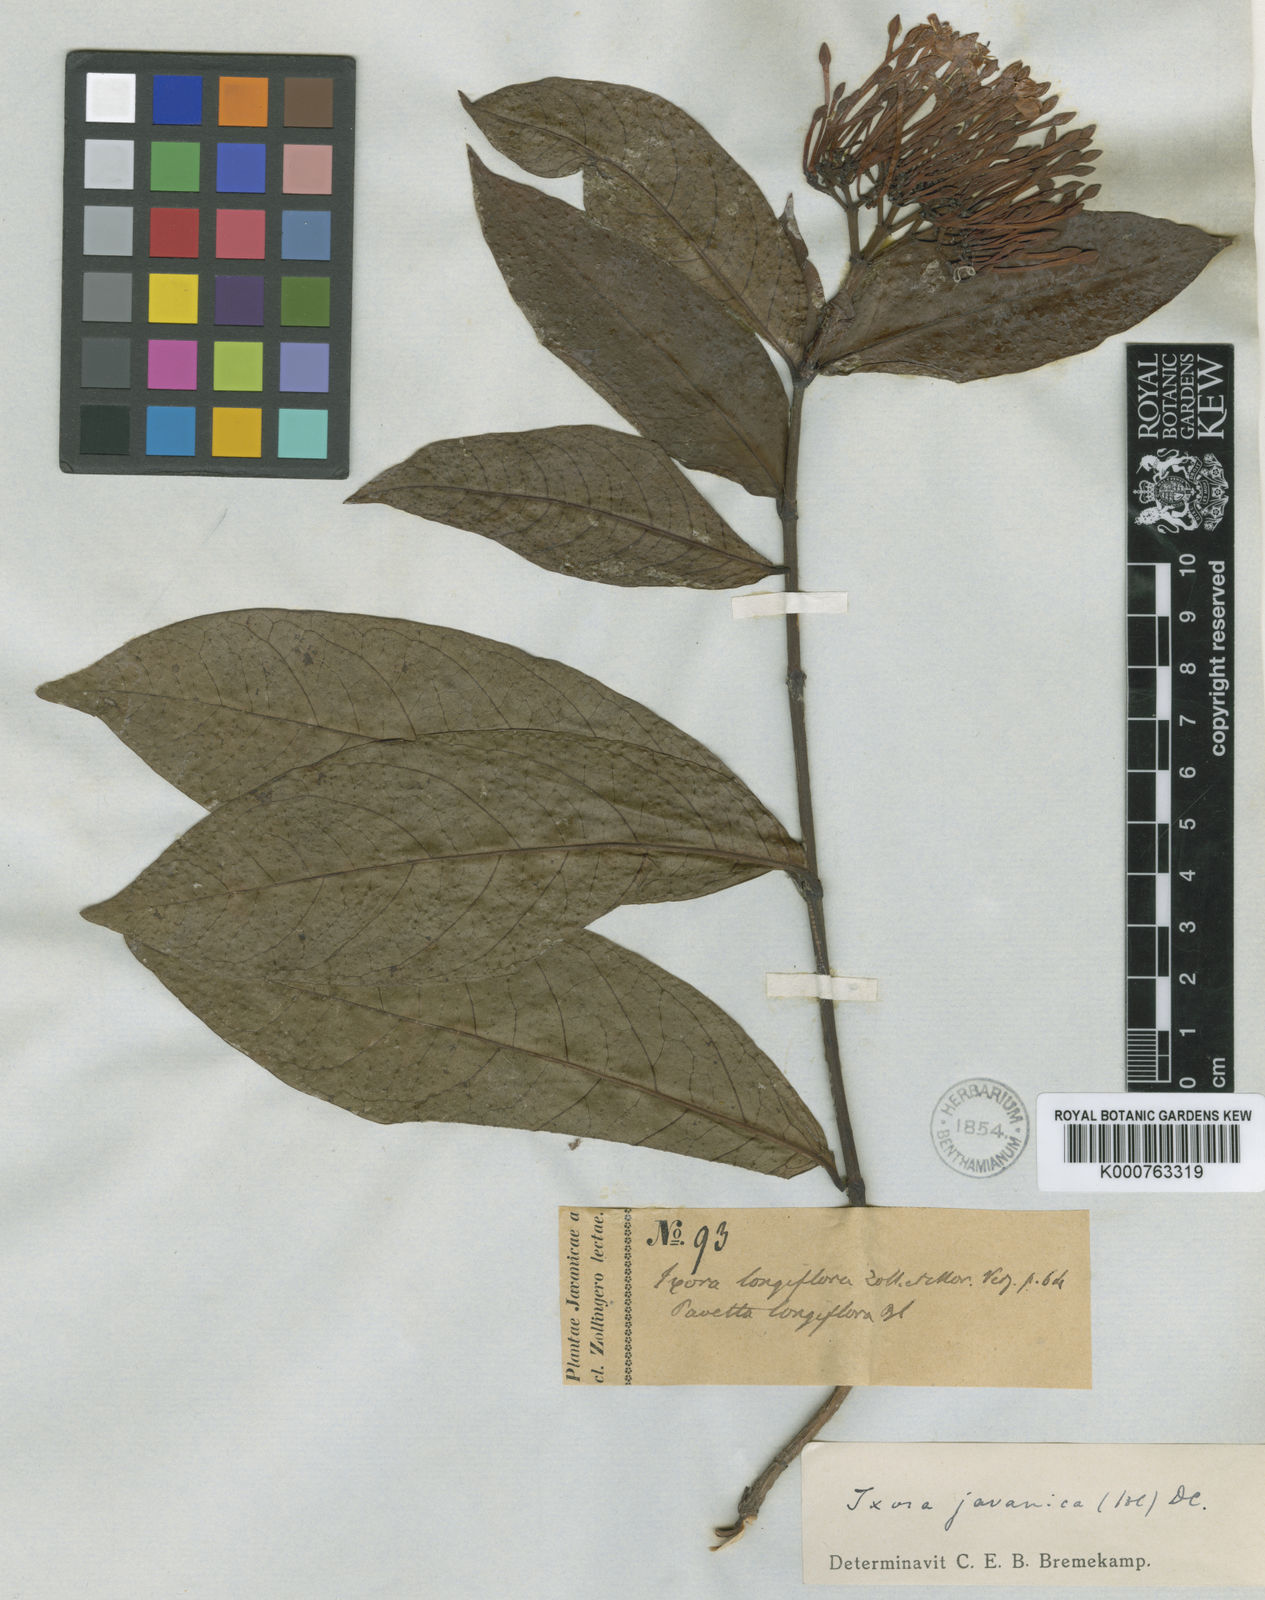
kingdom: Plantae
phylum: Tracheophyta
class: Magnoliopsida
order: Gentianales
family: Rubiaceae
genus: Ixora
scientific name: Ixora javanica
